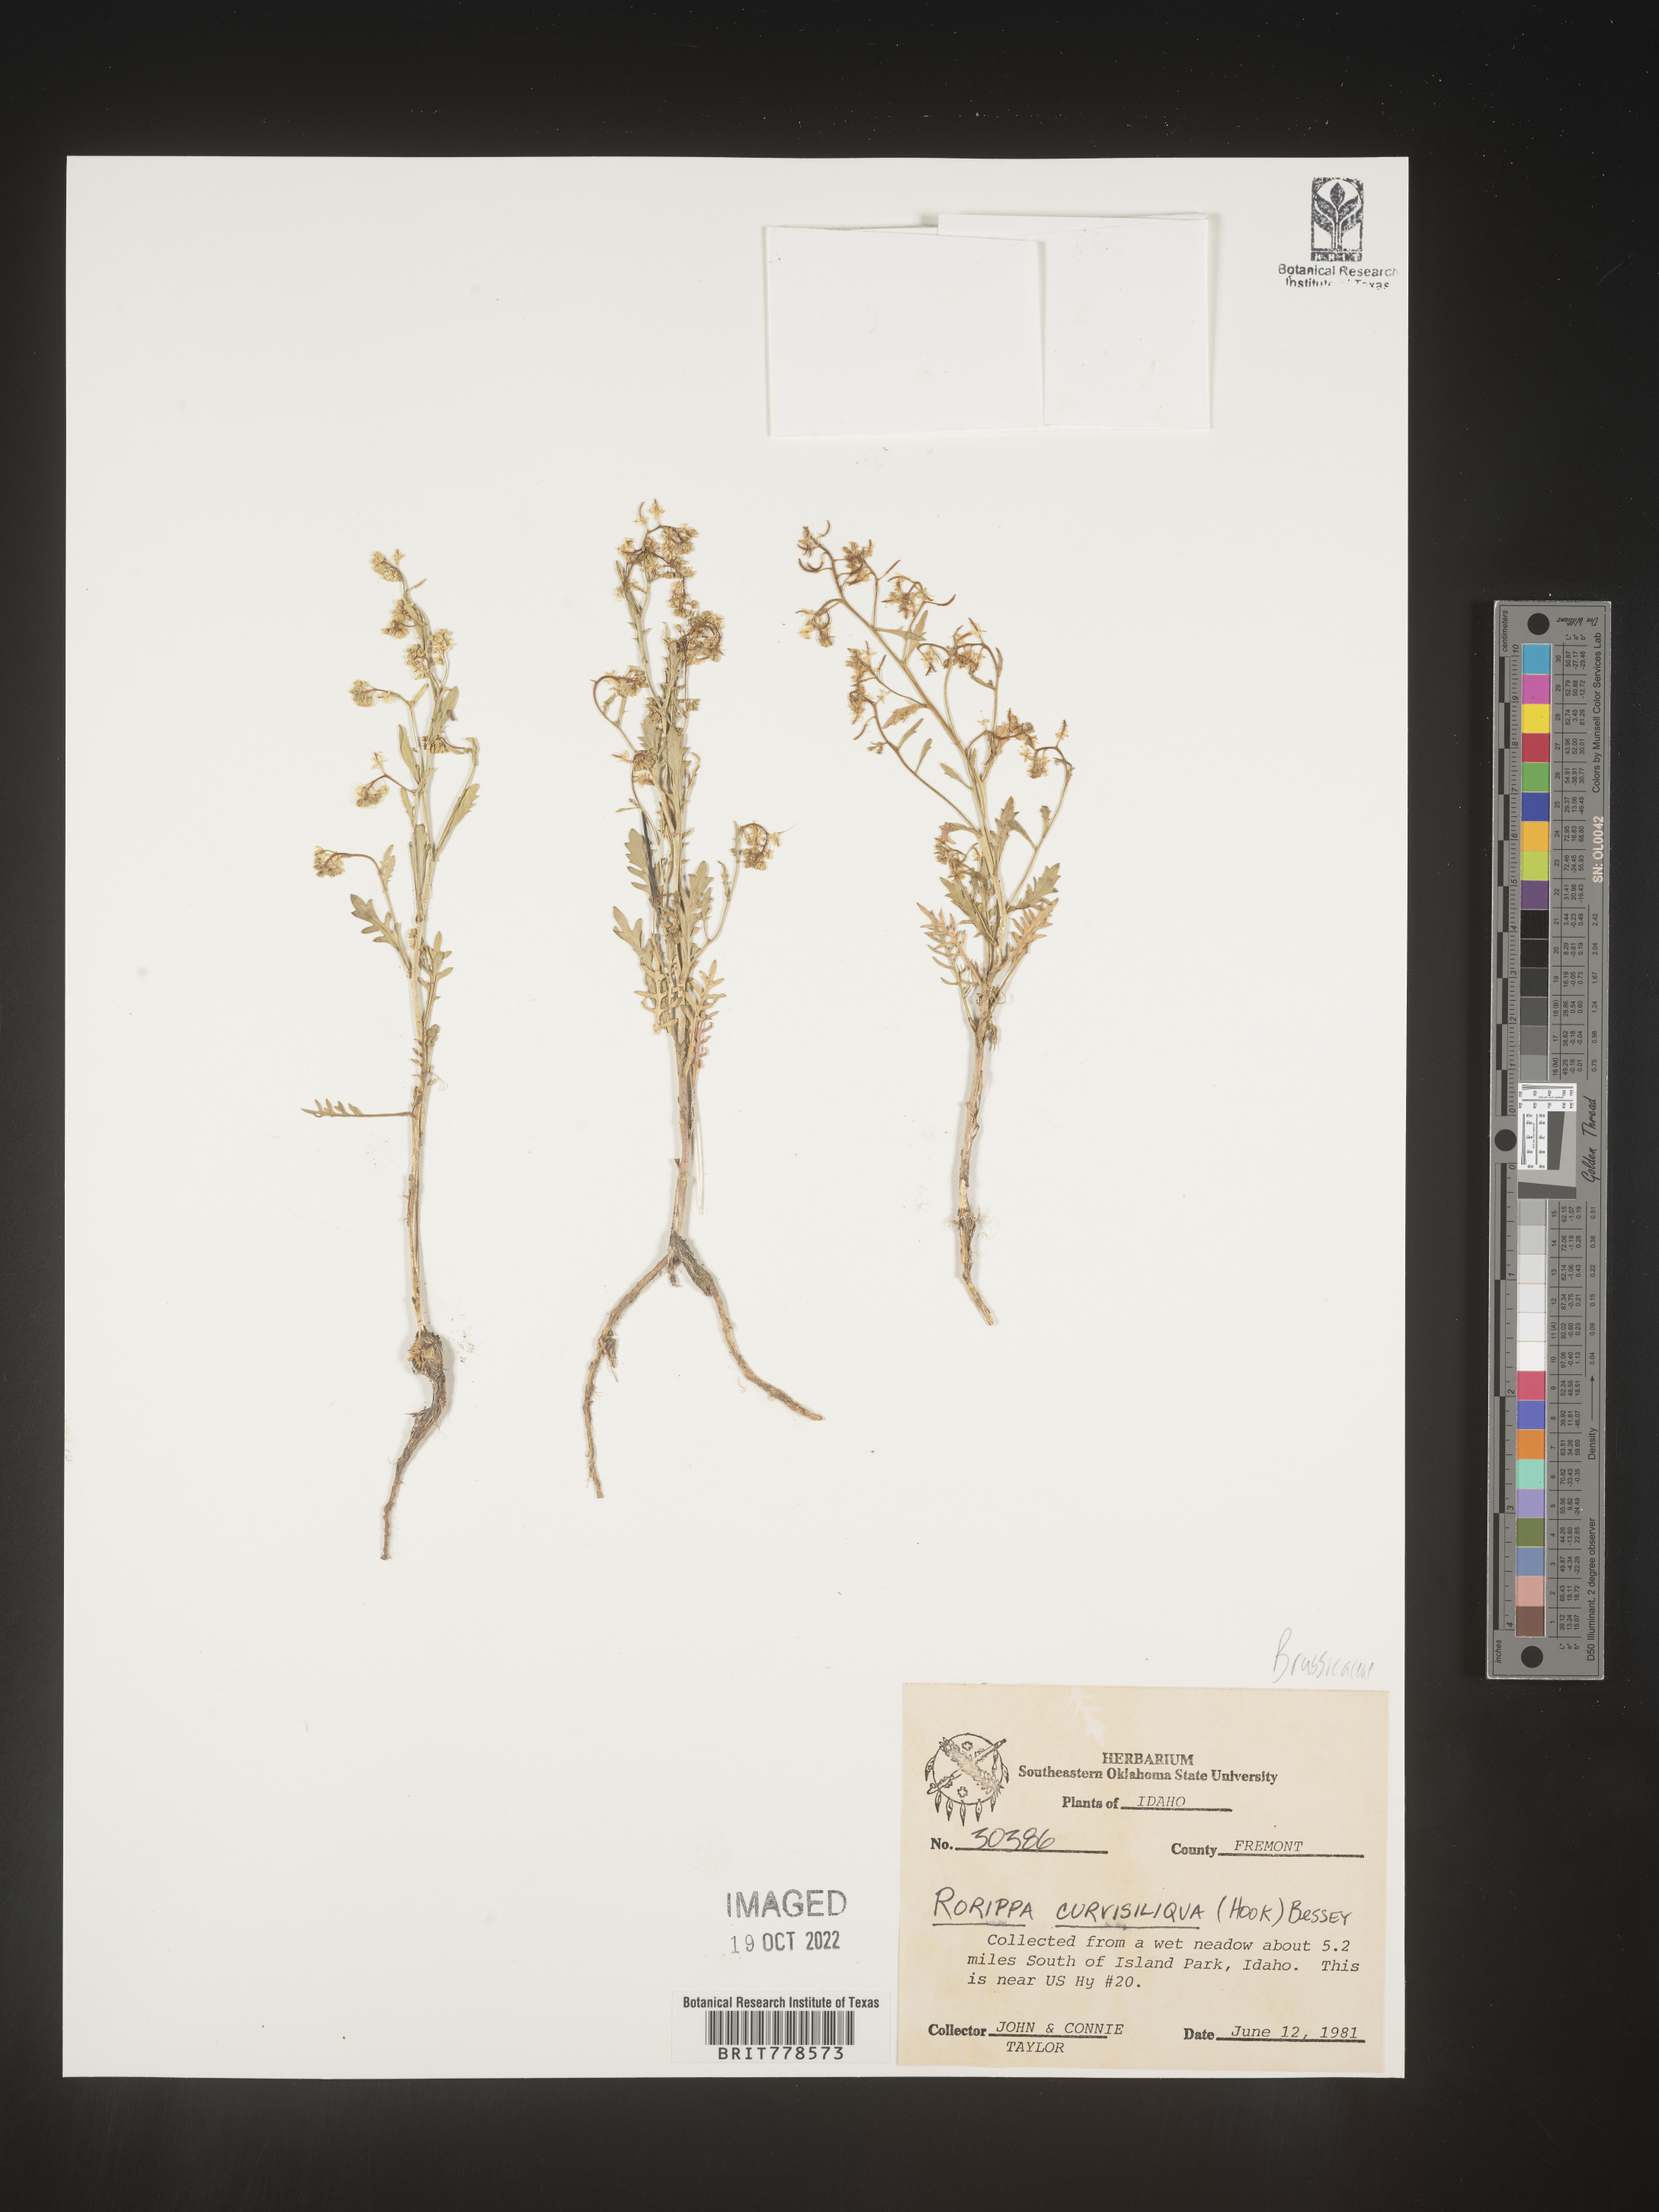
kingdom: Plantae
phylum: Tracheophyta
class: Magnoliopsida
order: Brassicales
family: Brassicaceae
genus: Rorippa
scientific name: Rorippa
